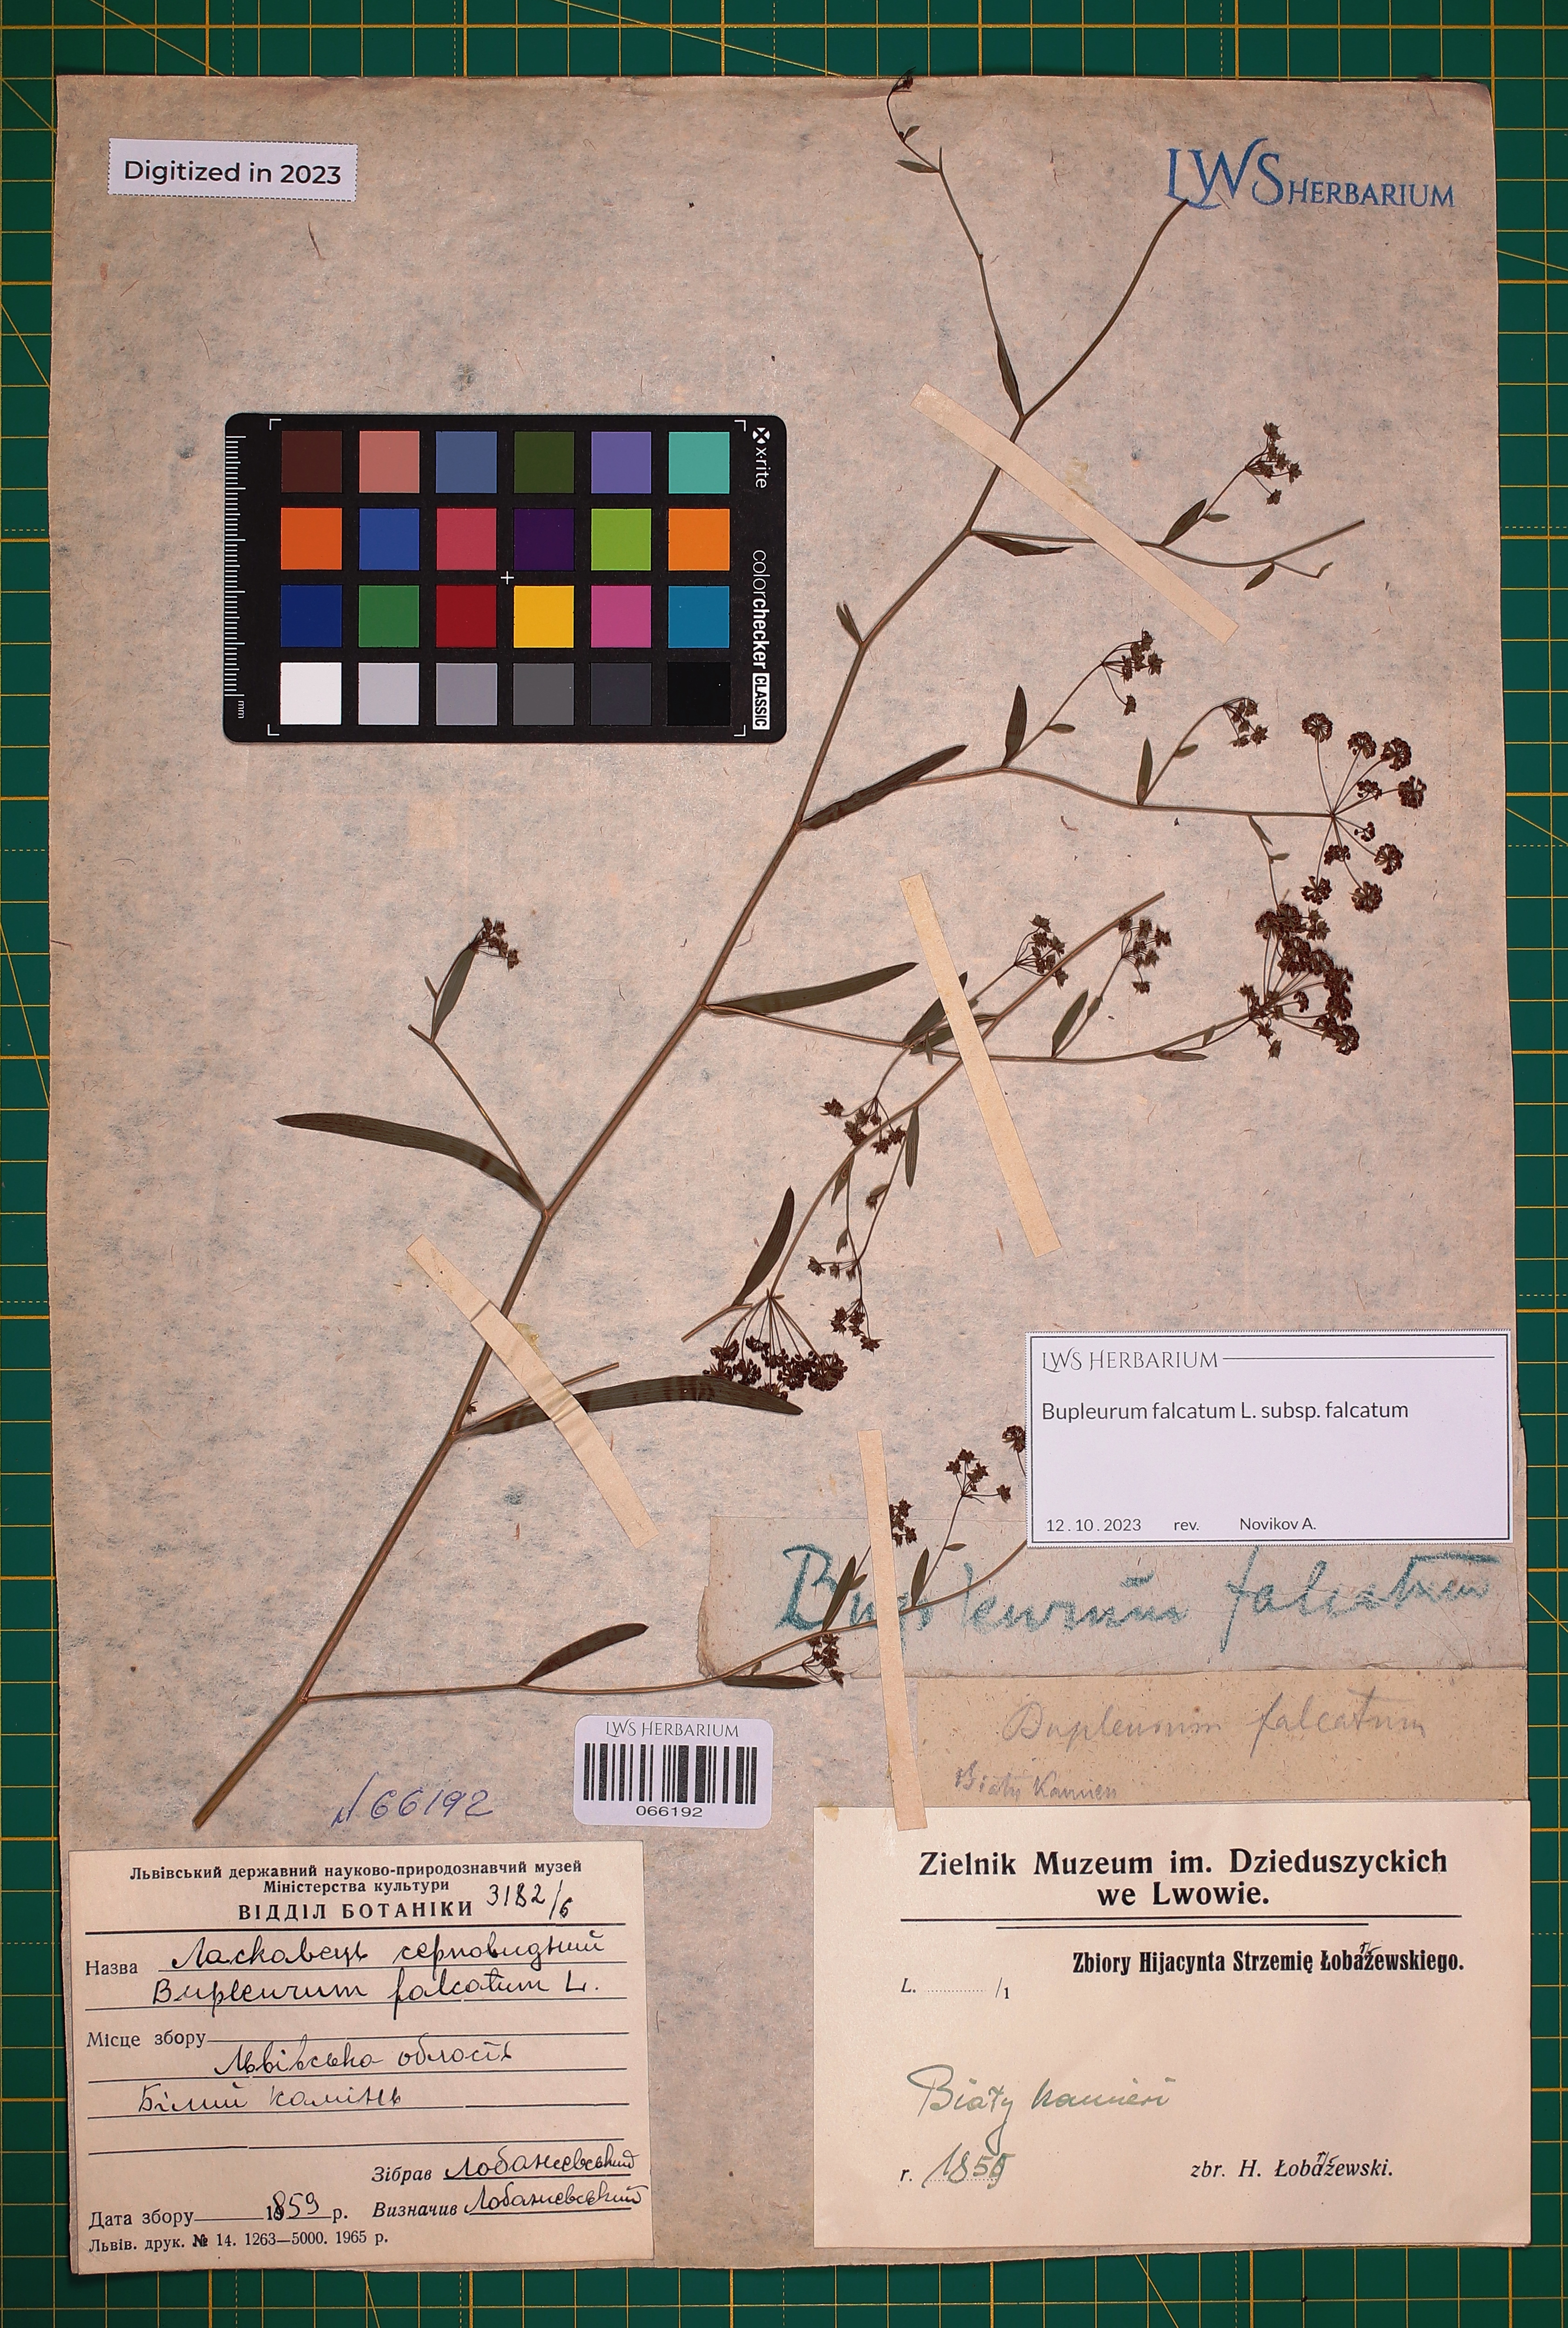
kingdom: Plantae
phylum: Tracheophyta
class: Magnoliopsida
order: Apiales
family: Apiaceae
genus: Bupleurum
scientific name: Bupleurum falcatum
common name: Sickle-leaved hare's-ear
